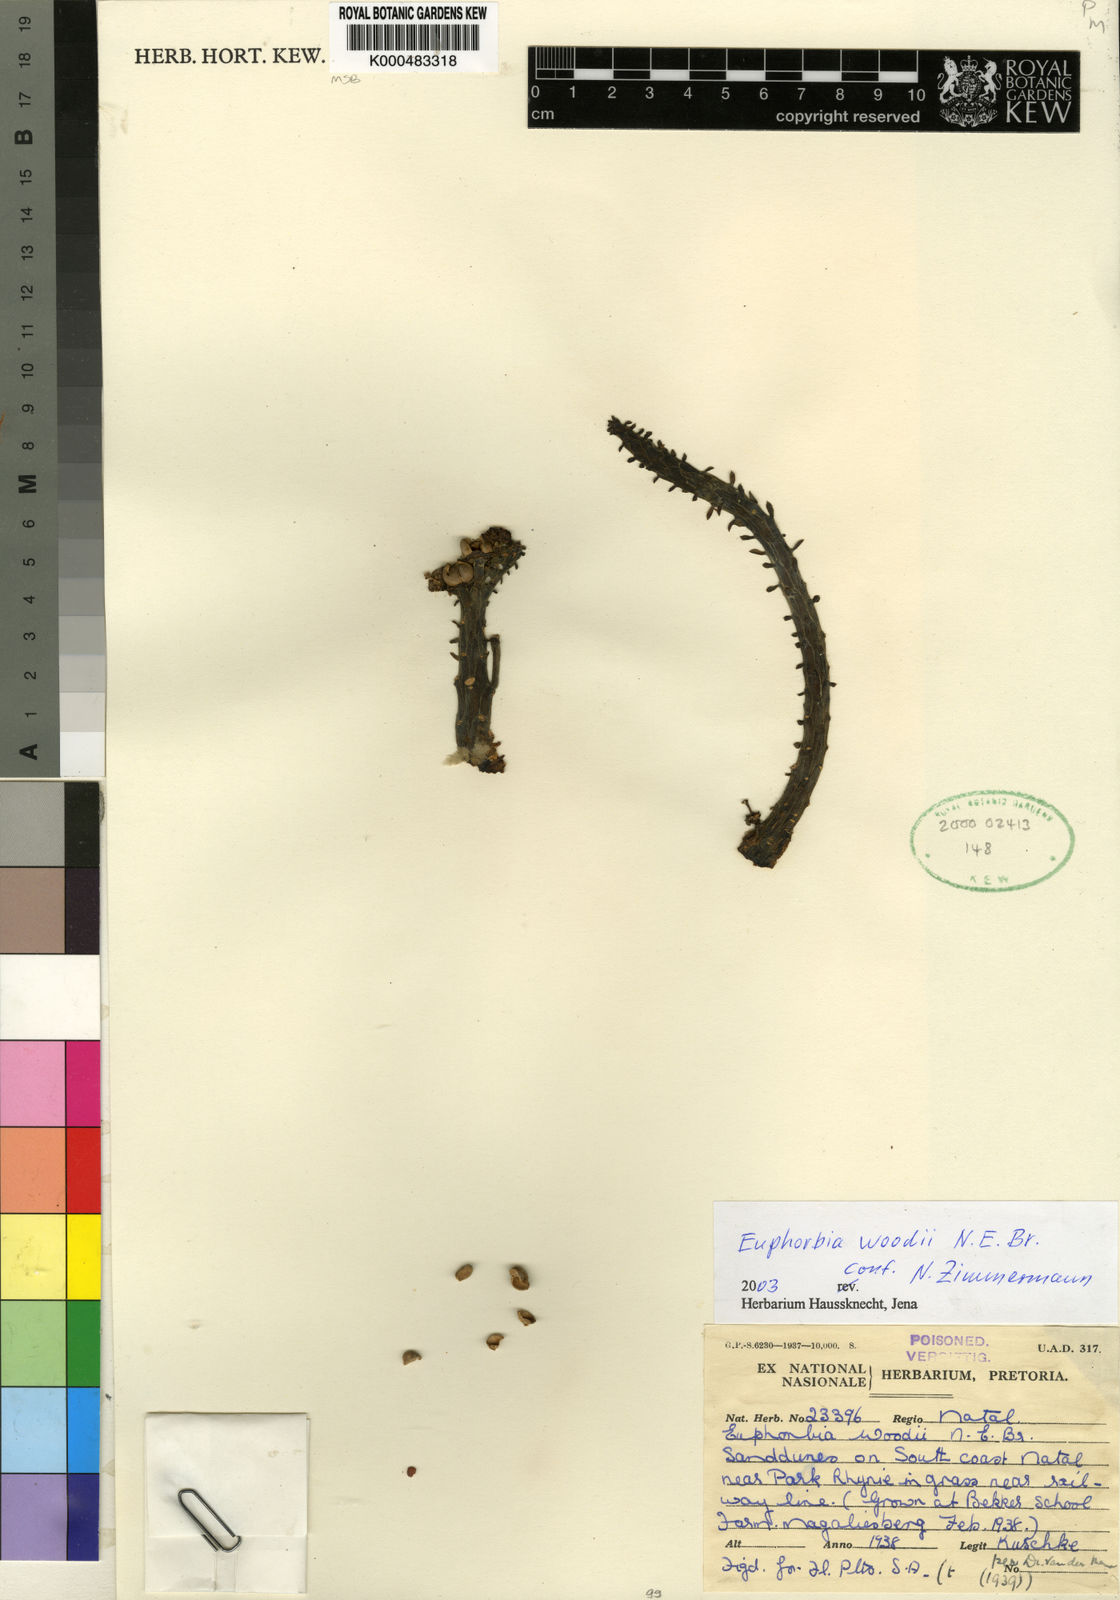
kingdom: Plantae
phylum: Tracheophyta
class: Magnoliopsida
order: Malpighiales
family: Euphorbiaceae
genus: Euphorbia
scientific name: Euphorbia woodii
